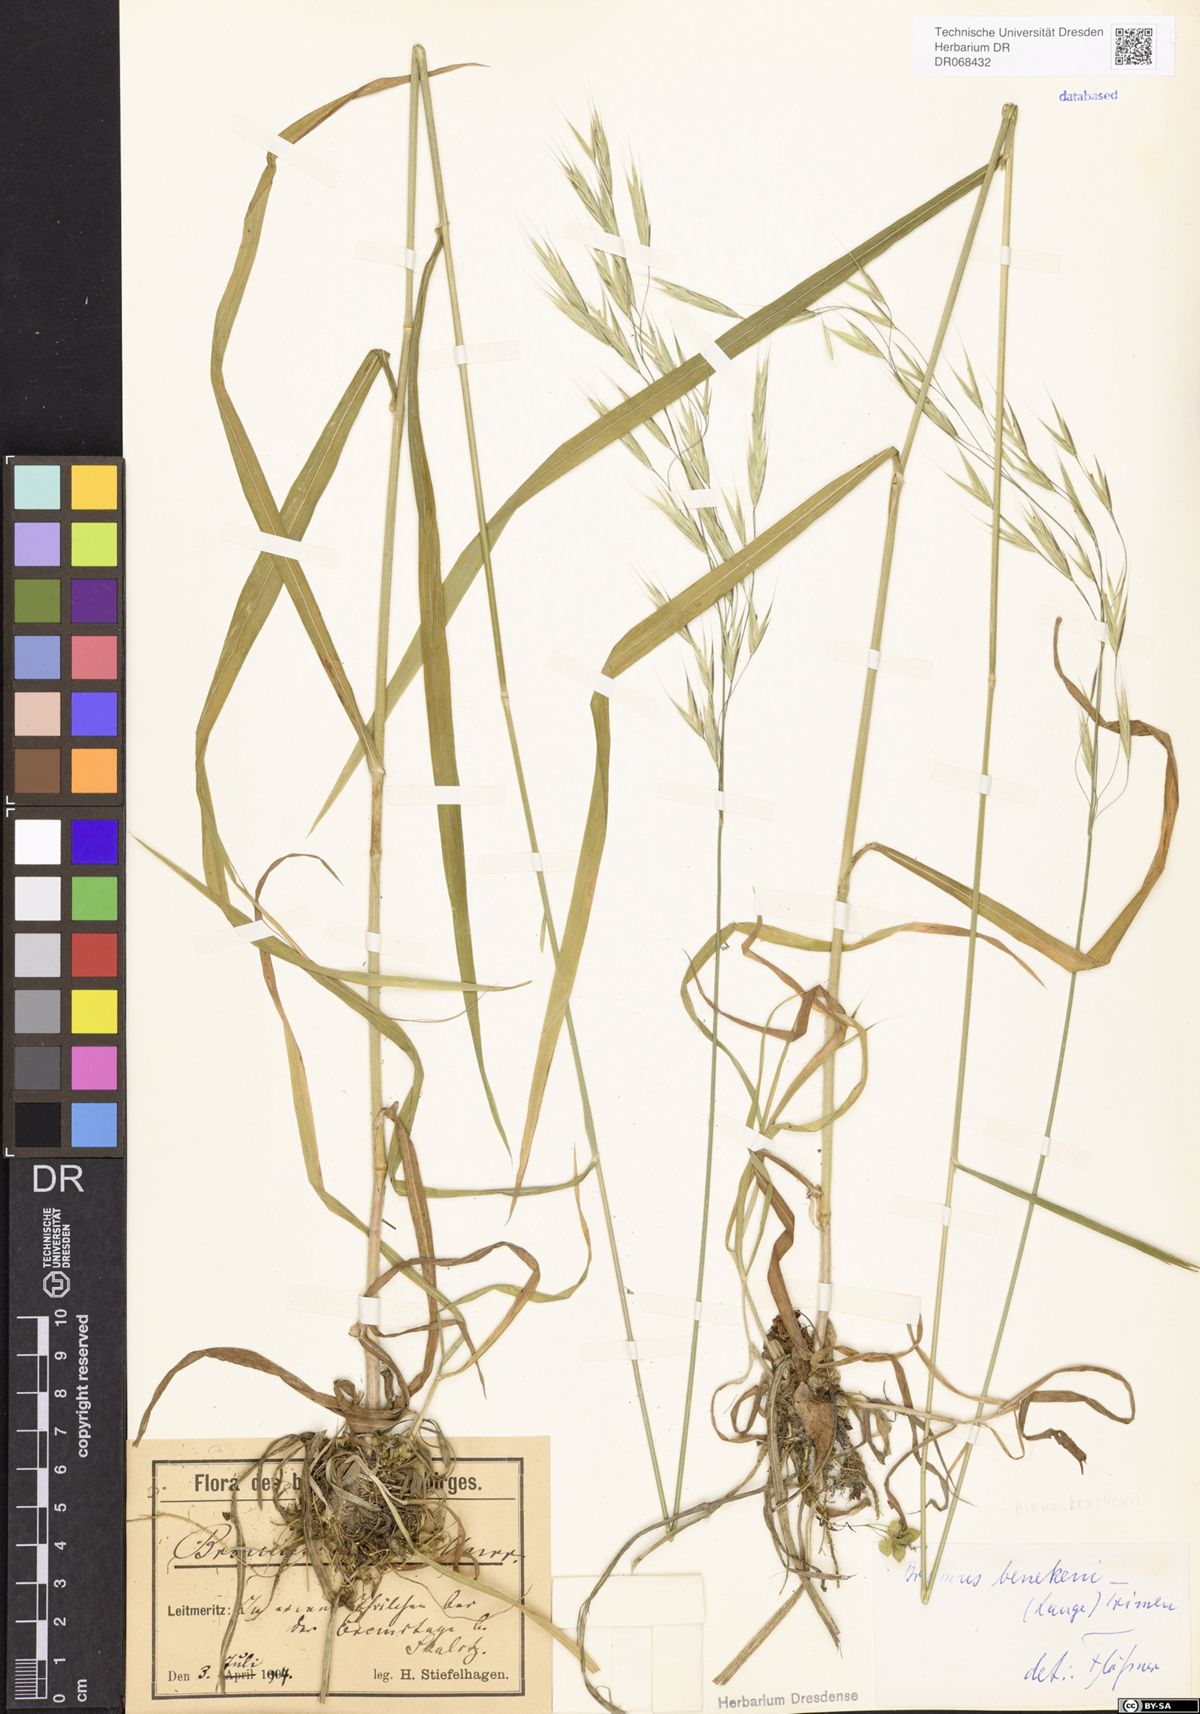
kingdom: Plantae
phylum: Tracheophyta
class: Liliopsida
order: Poales
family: Poaceae
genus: Bromus
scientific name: Bromus benekenii
